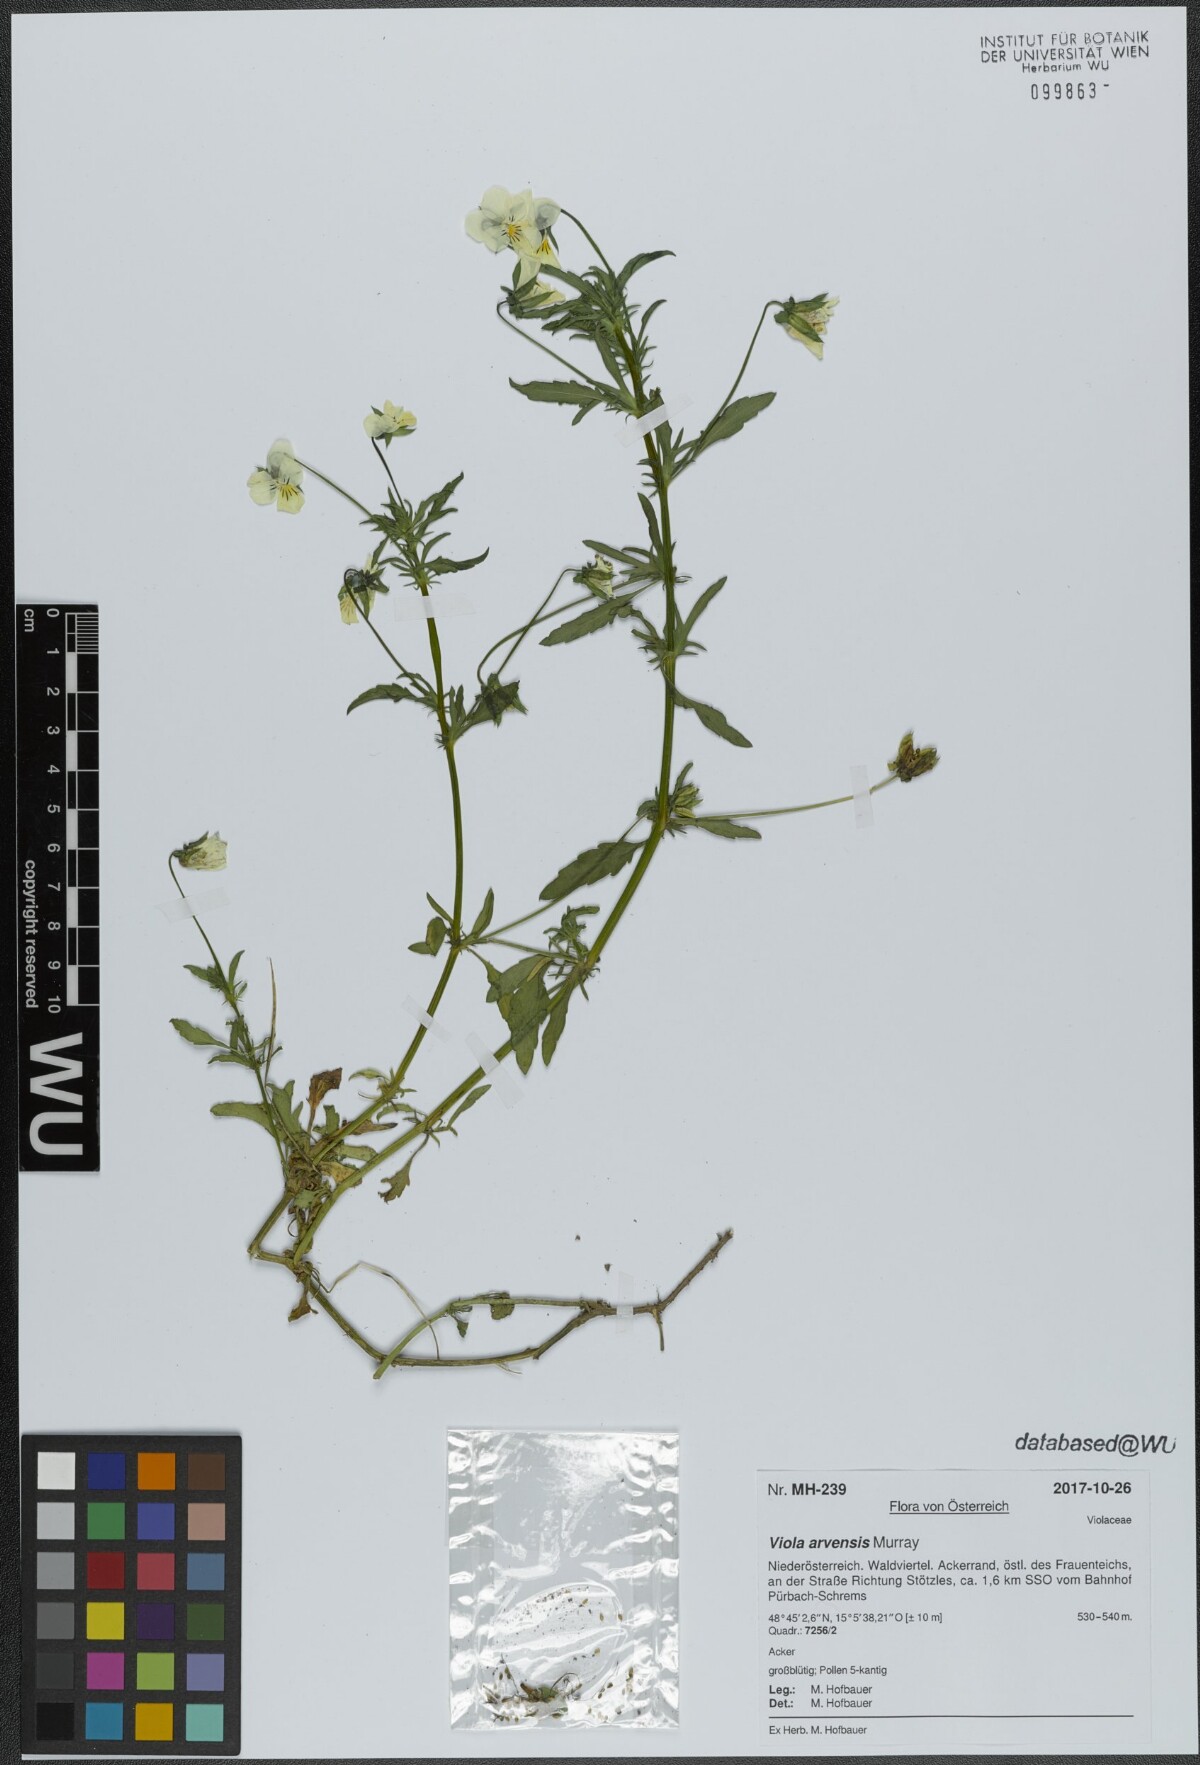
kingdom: Plantae
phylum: Tracheophyta
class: Magnoliopsida
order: Malpighiales
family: Violaceae
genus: Viola
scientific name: Viola arvensis
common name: Field pansy
